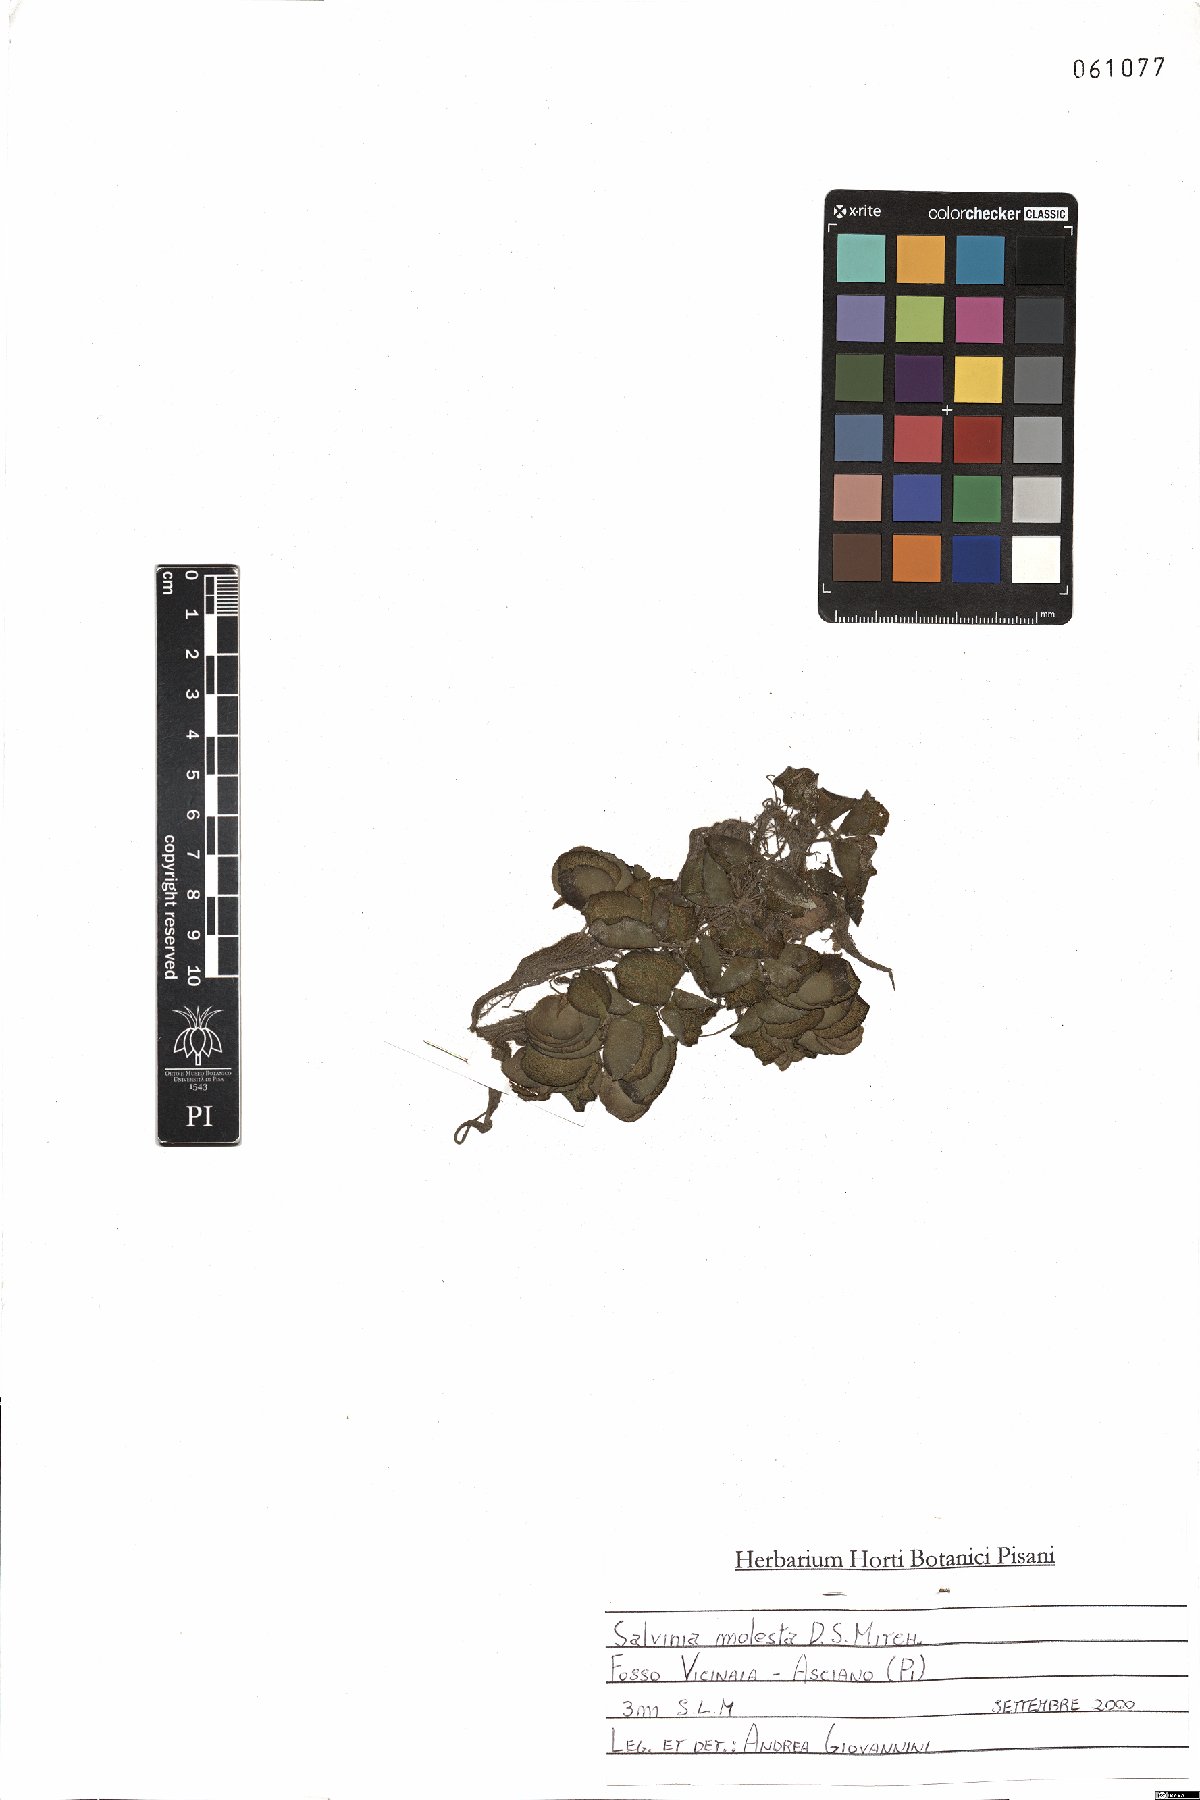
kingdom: Plantae
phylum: Tracheophyta
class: Polypodiopsida
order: Salviniales
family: Salviniaceae
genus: Salvinia
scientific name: Salvinia molesta
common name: Kariba weed
